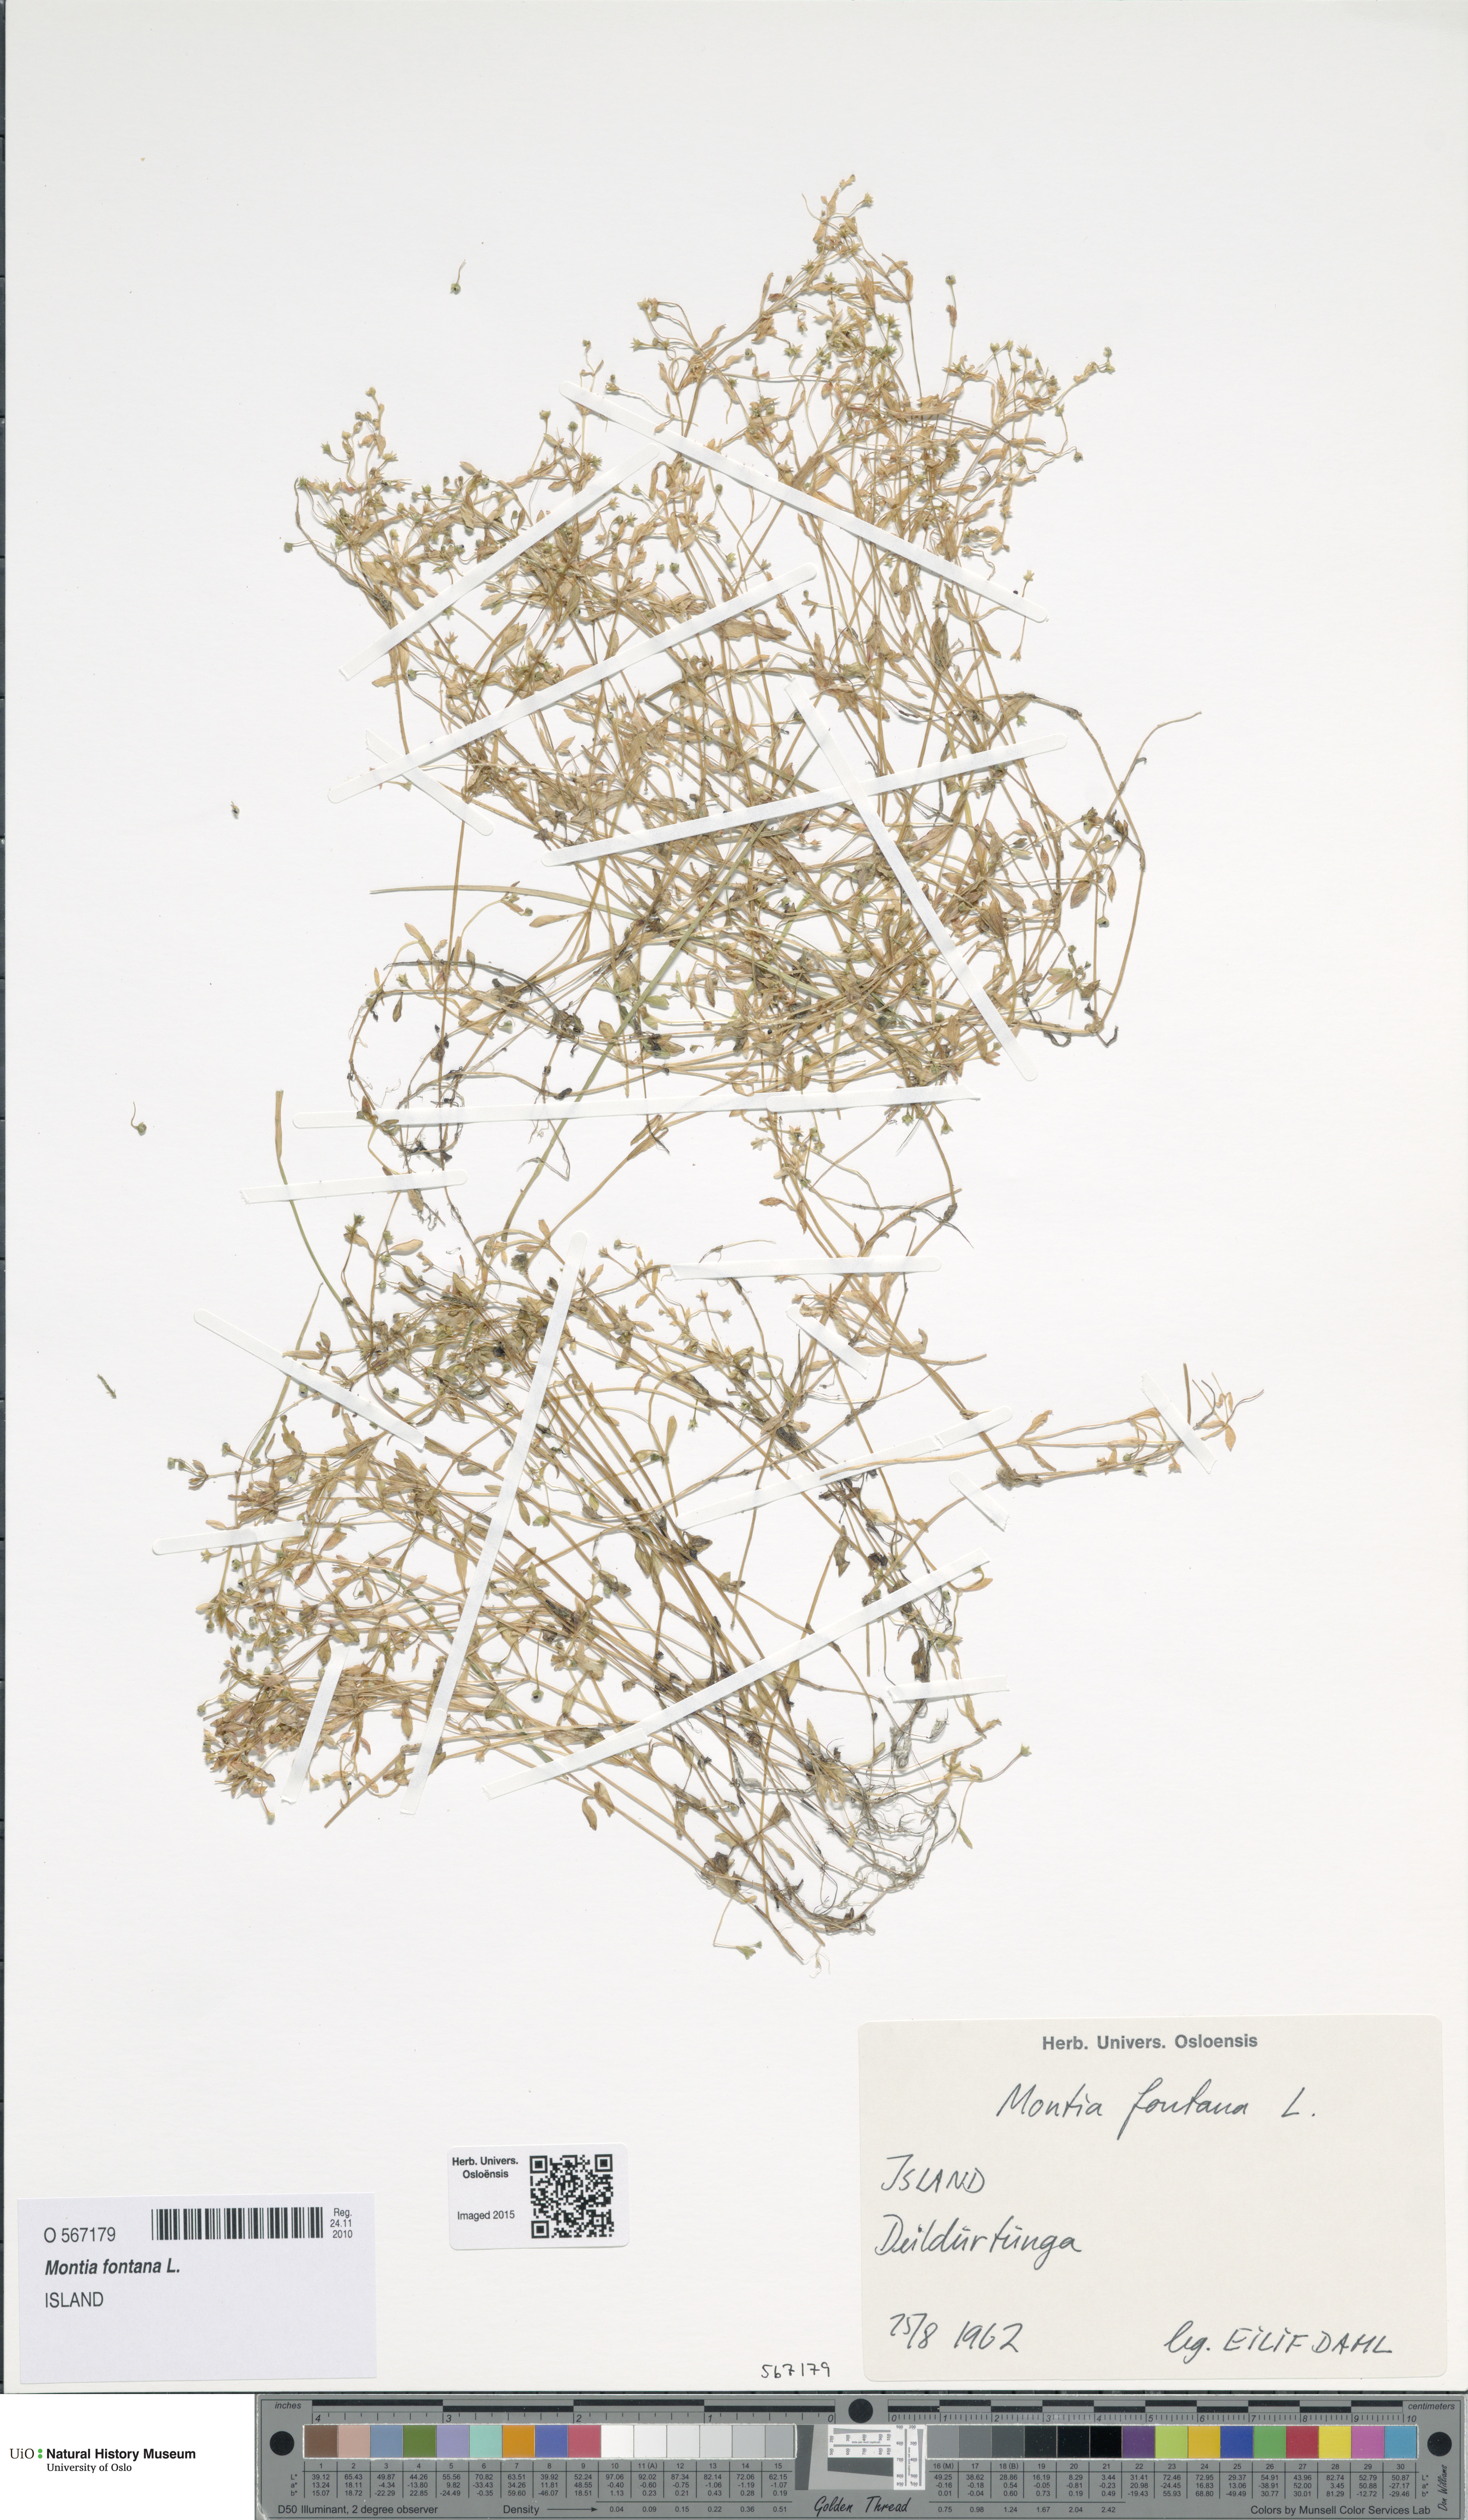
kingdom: Plantae
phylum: Tracheophyta
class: Magnoliopsida
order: Caryophyllales
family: Montiaceae
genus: Montia
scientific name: Montia fontana
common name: Blinks
